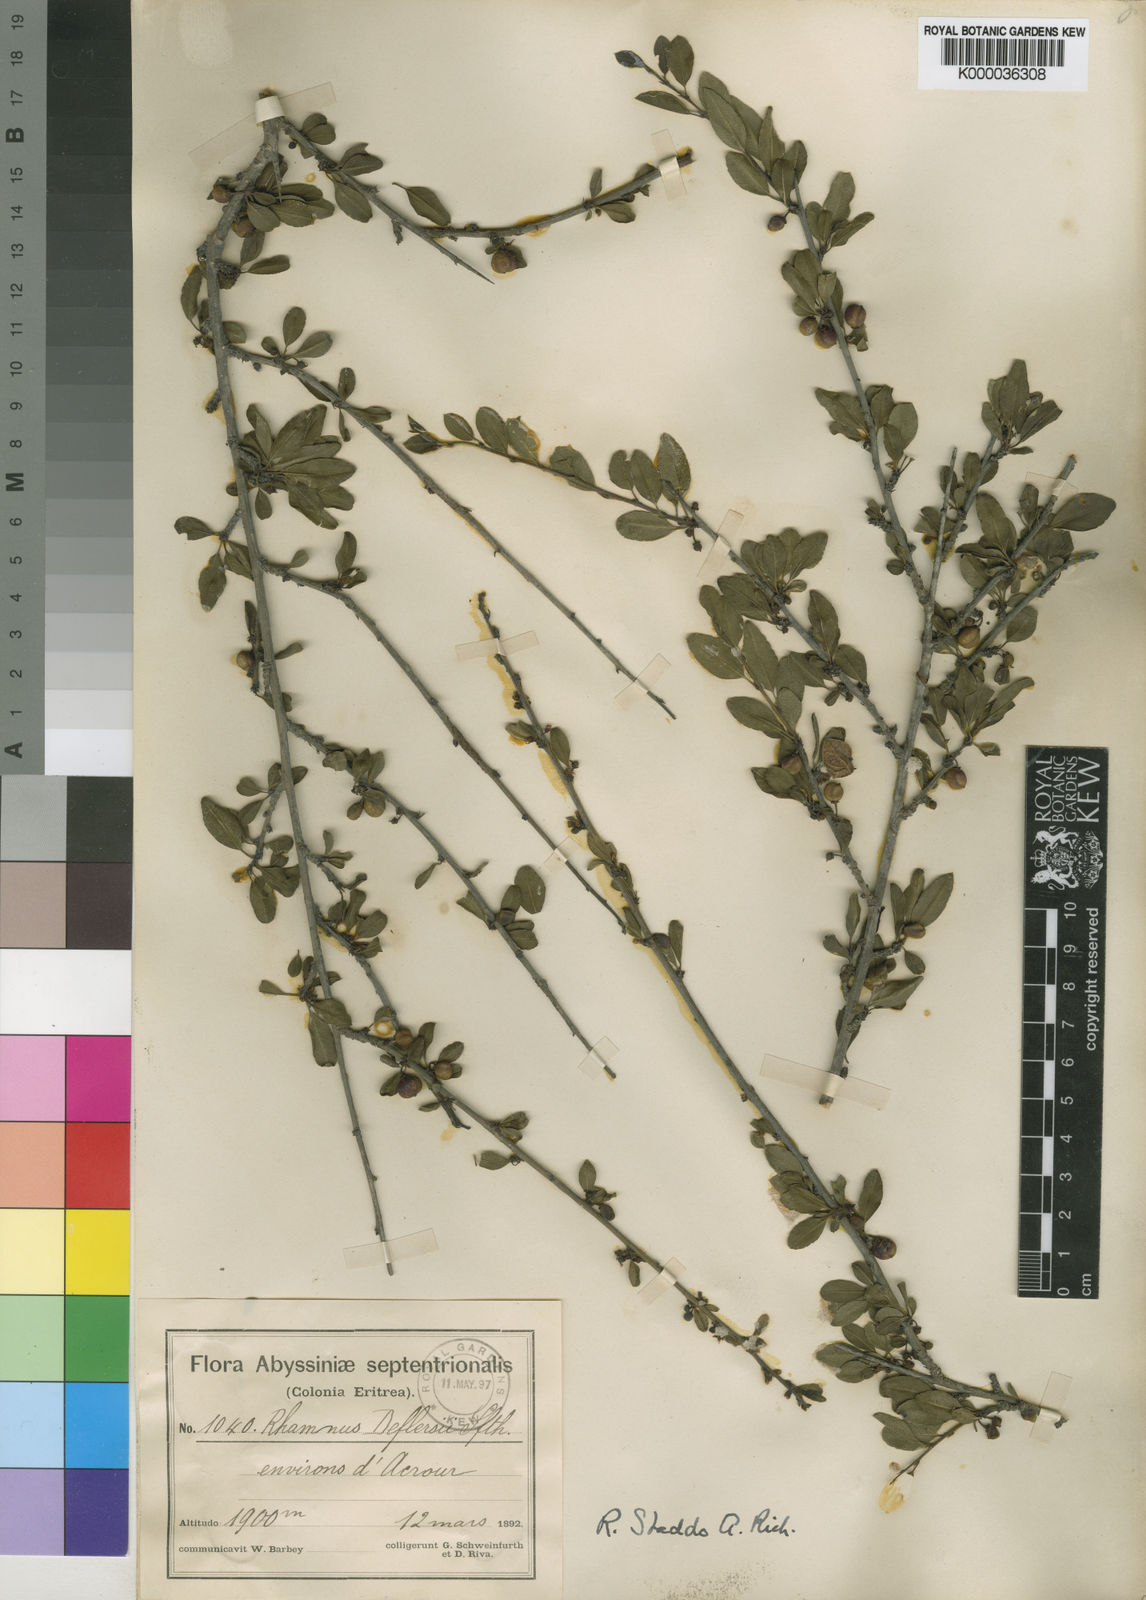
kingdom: Plantae
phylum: Tracheophyta
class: Magnoliopsida
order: Rosales
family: Rhamnaceae
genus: Rhamnus
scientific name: Rhamnus staddo
